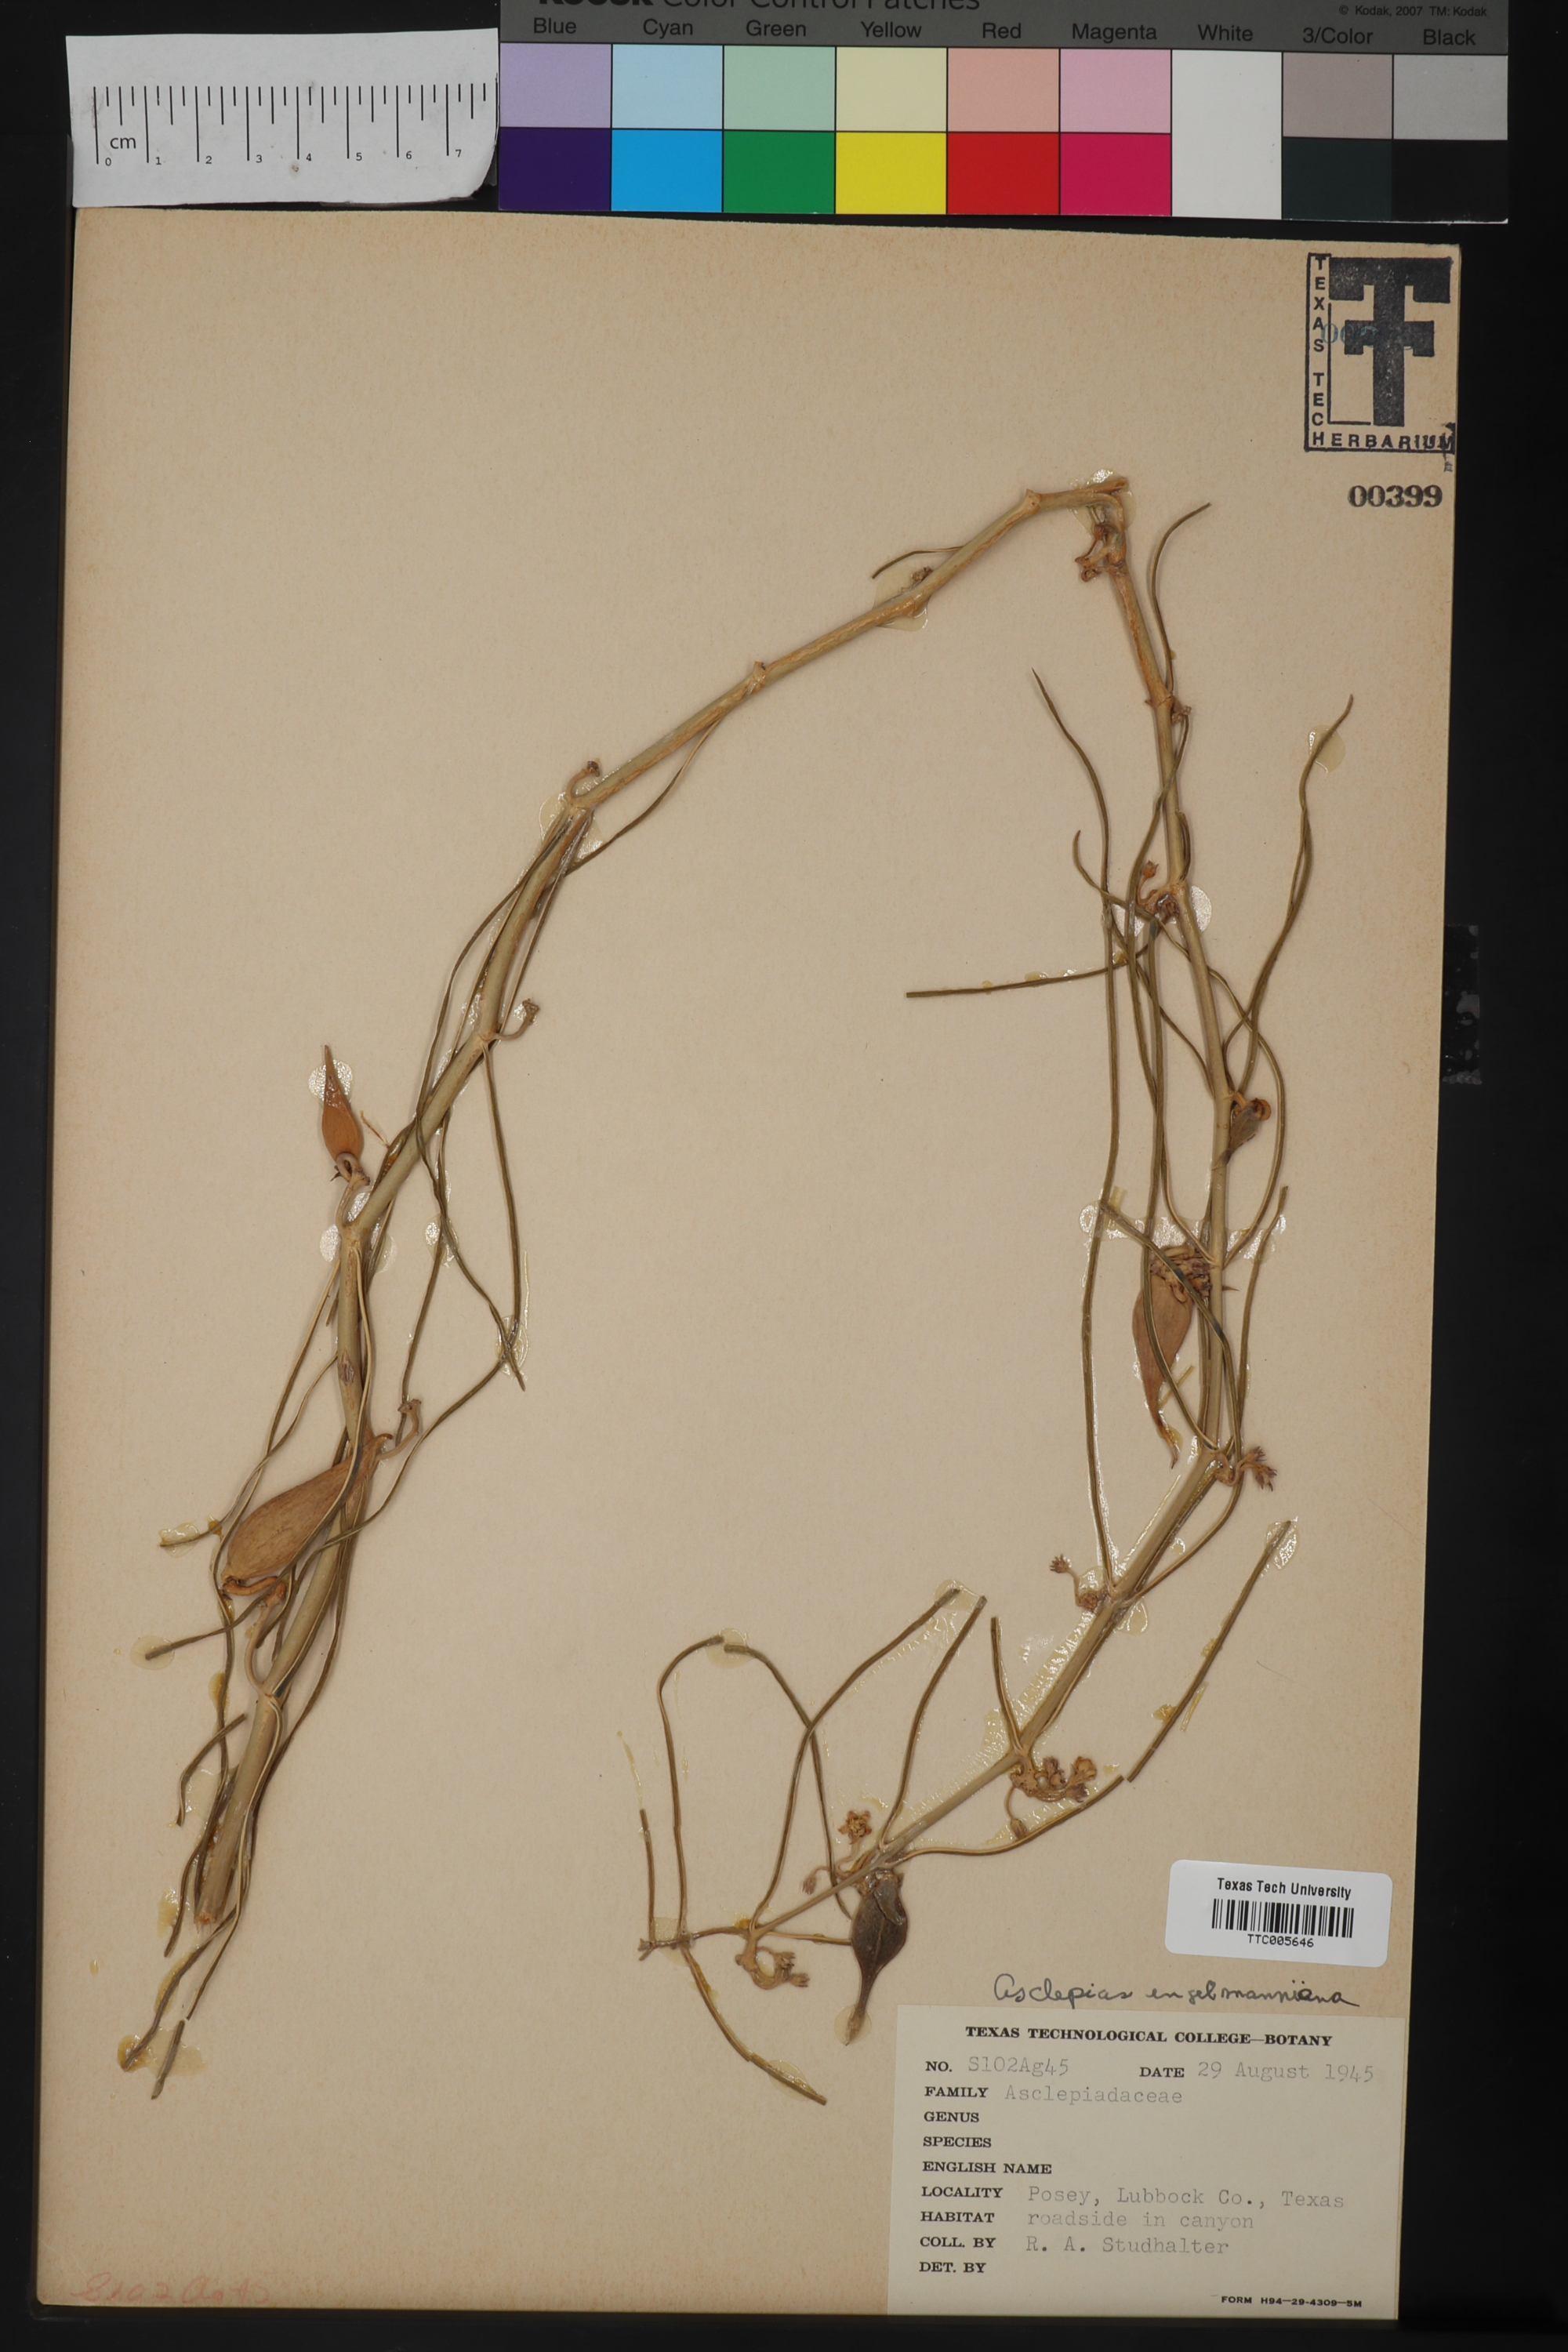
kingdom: Plantae
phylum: Tracheophyta
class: Magnoliopsida
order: Gentianales
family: Apocynaceae
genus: Asclepias
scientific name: Asclepias engelmanniana
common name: Engelmann's milkweed
